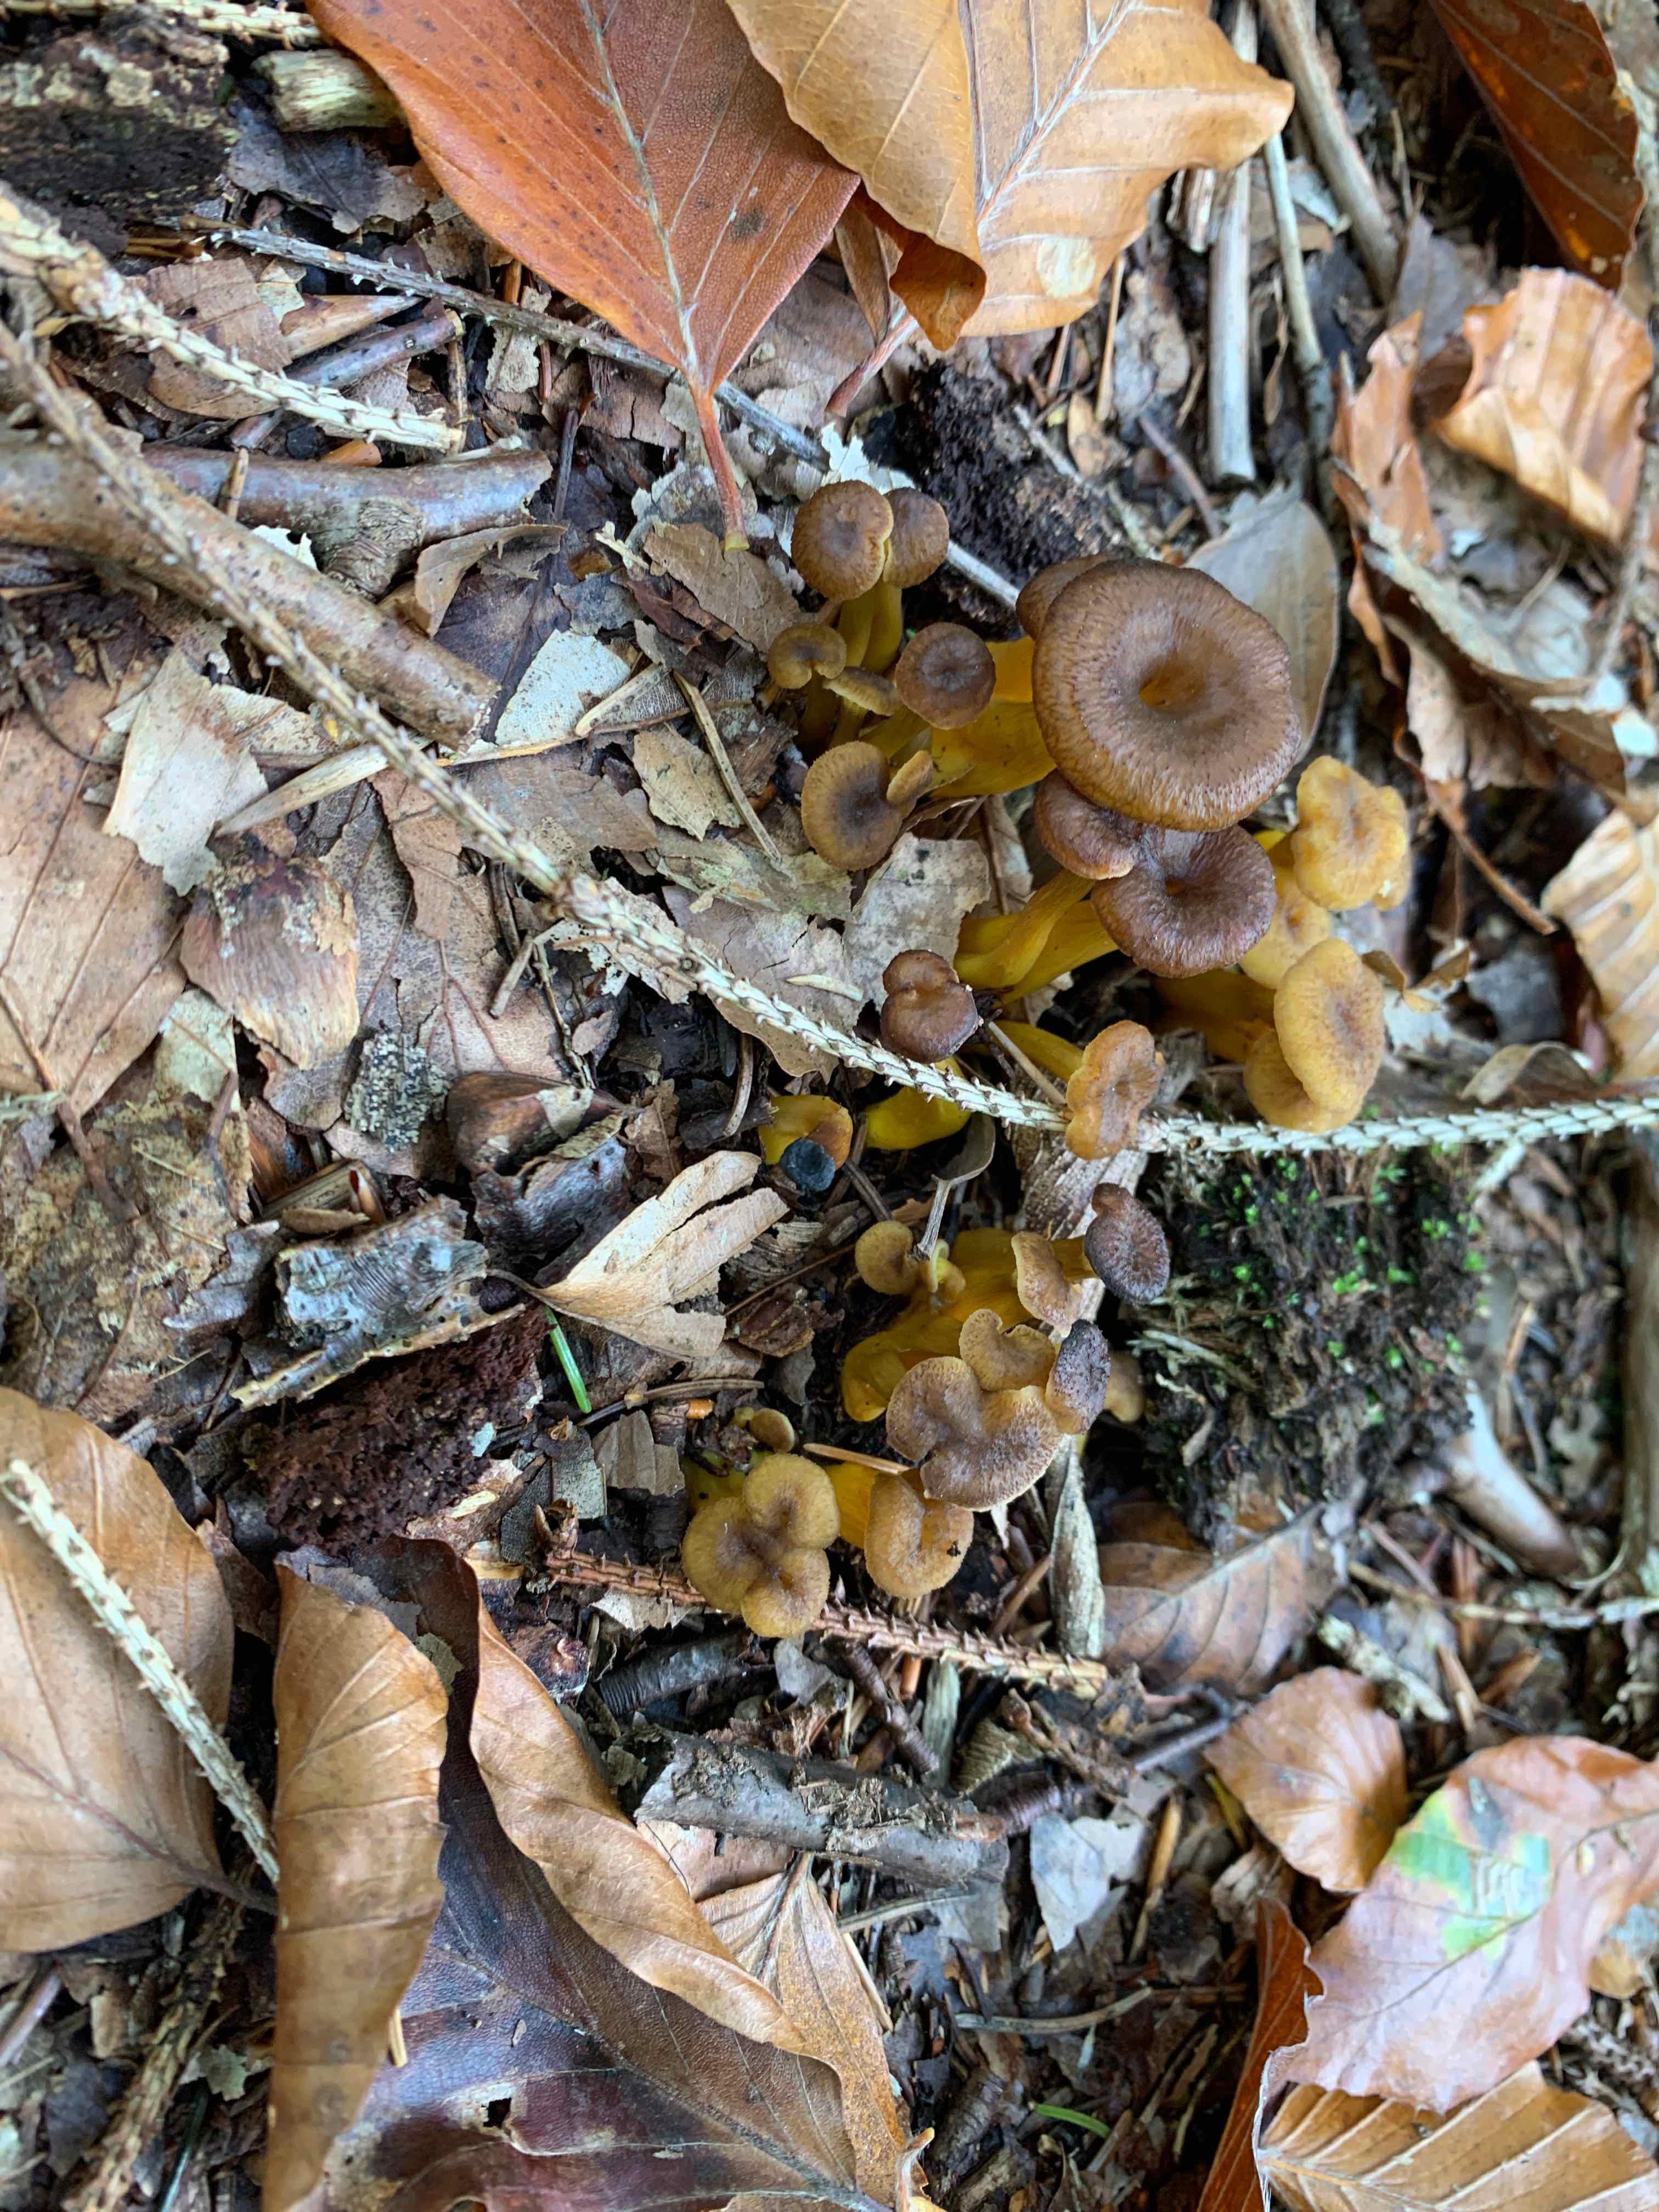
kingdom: Fungi
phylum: Basidiomycota
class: Agaricomycetes
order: Cantharellales
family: Hydnaceae
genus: Craterellus
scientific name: Craterellus tubaeformis
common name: tragt-kantarel
